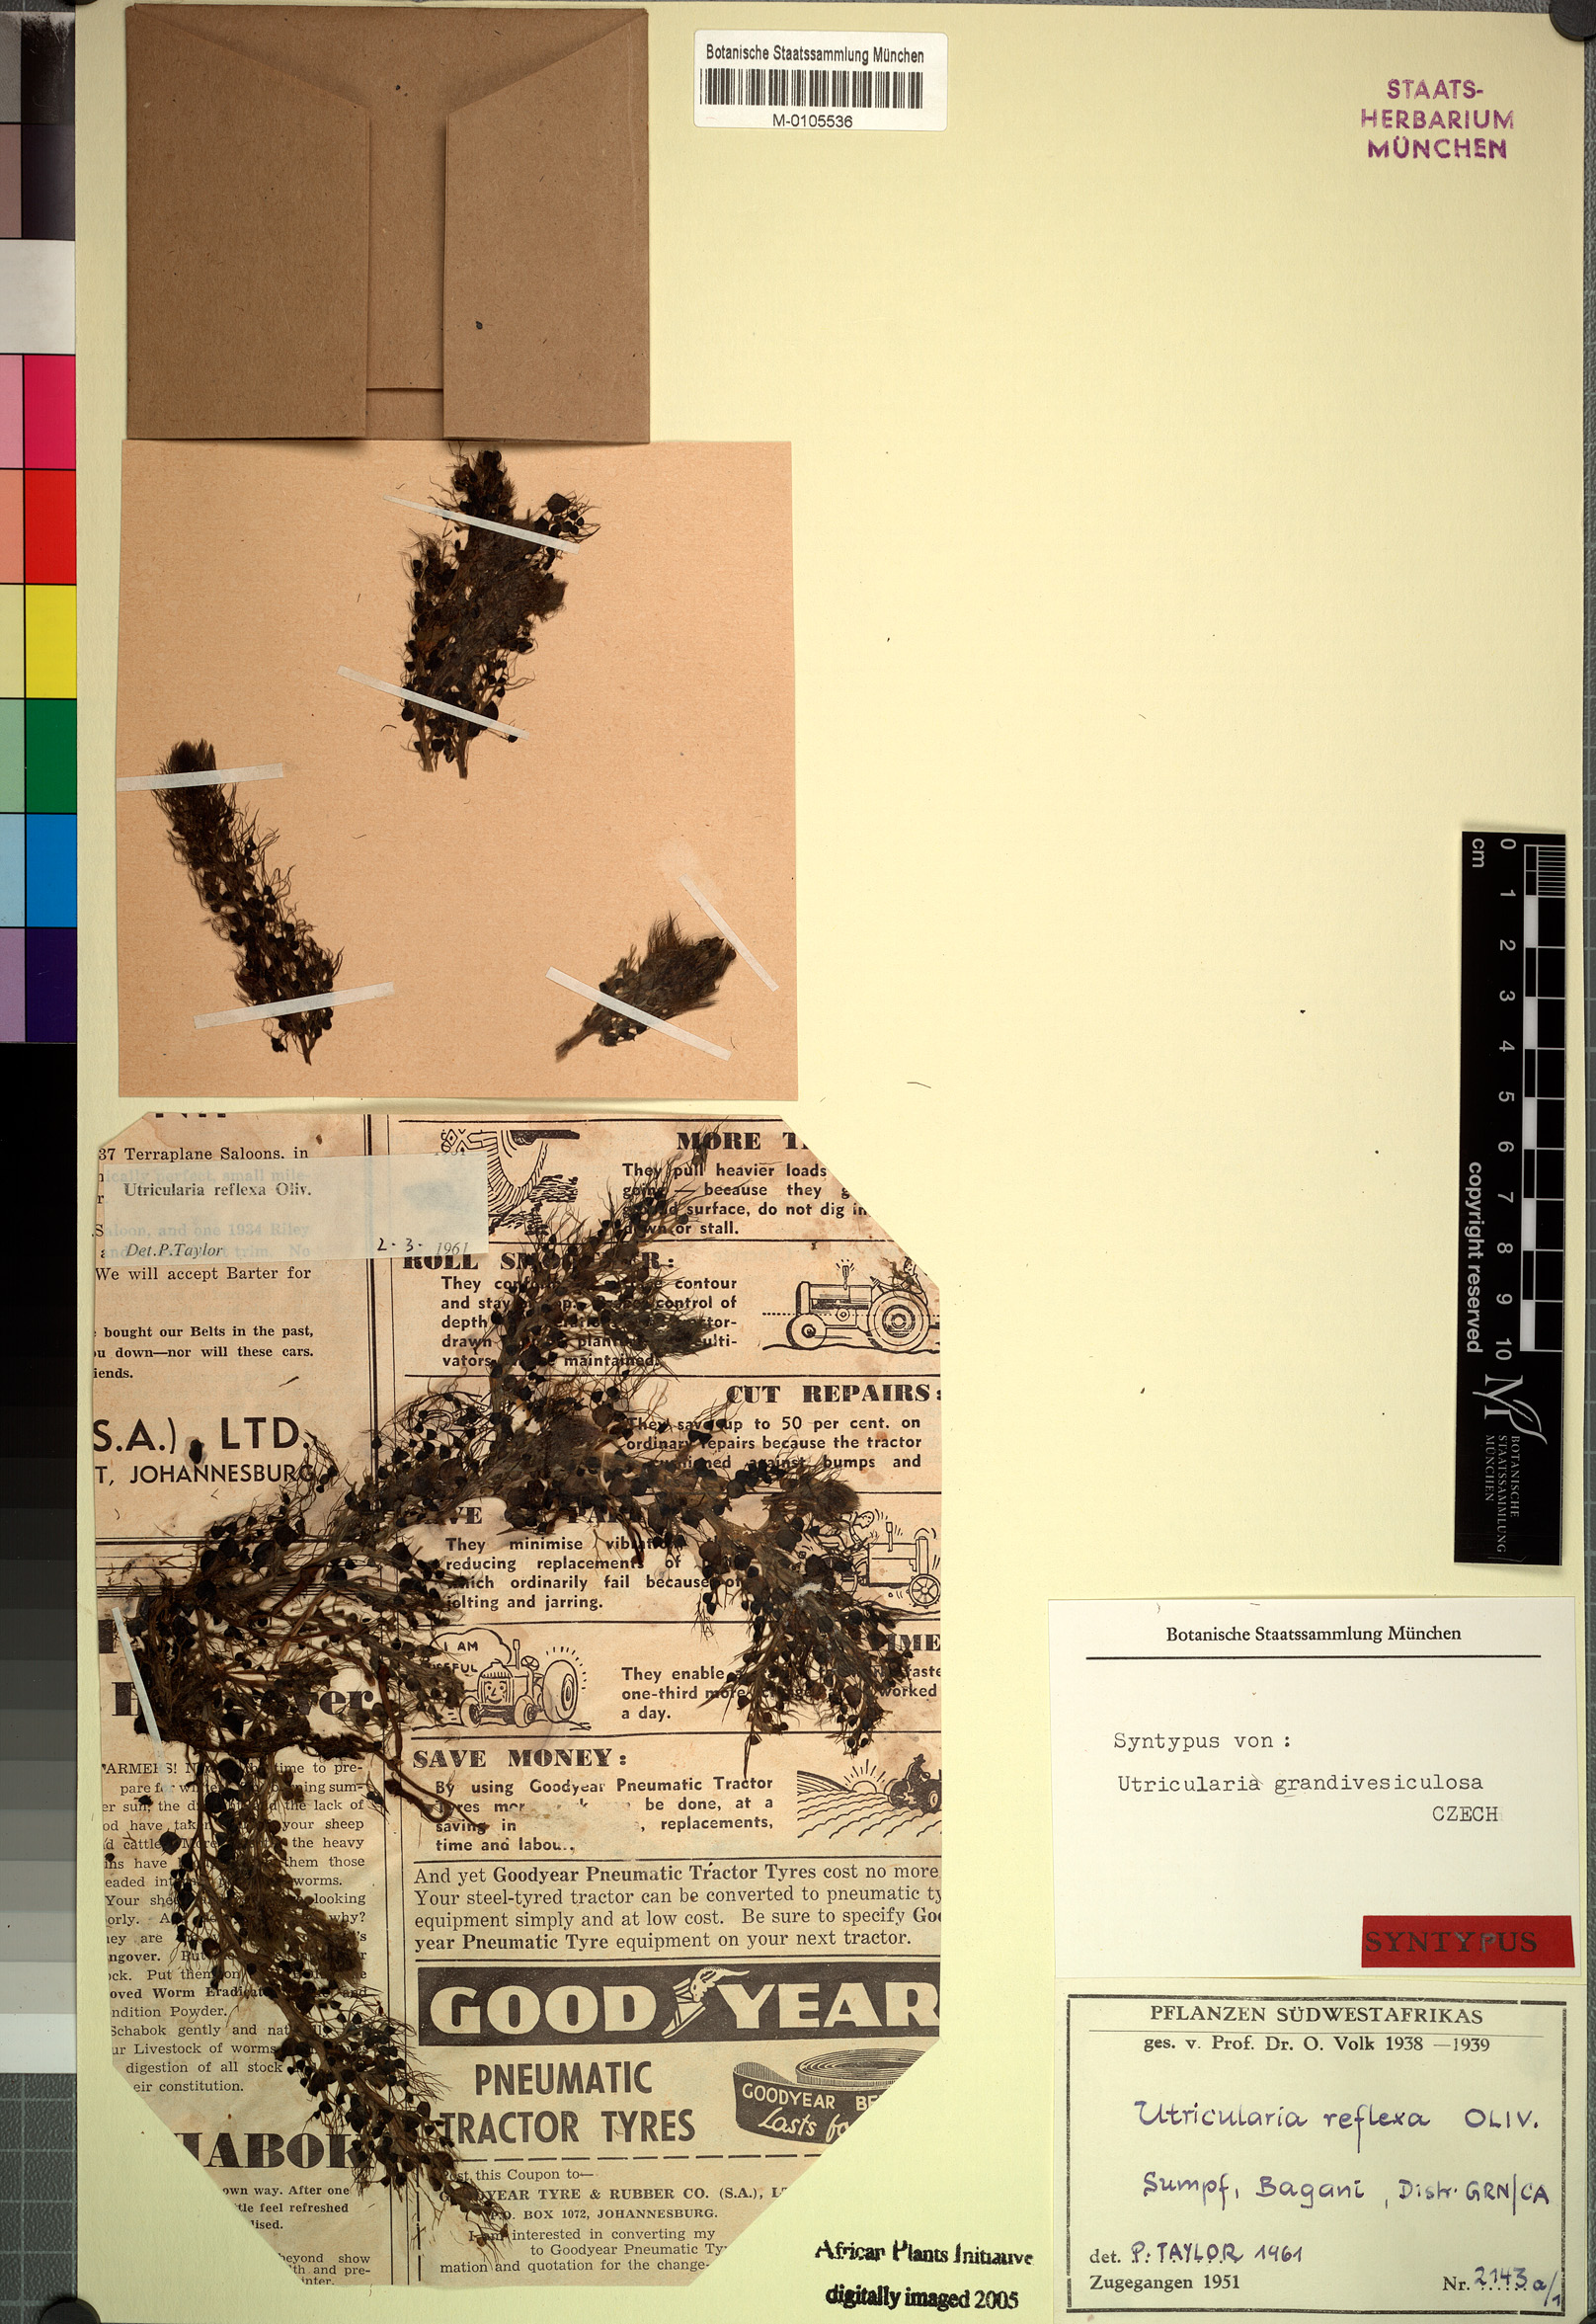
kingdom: Plantae
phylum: Tracheophyta
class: Magnoliopsida
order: Lamiales
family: Lentibulariaceae
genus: Utricularia
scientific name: Utricularia reflexa
